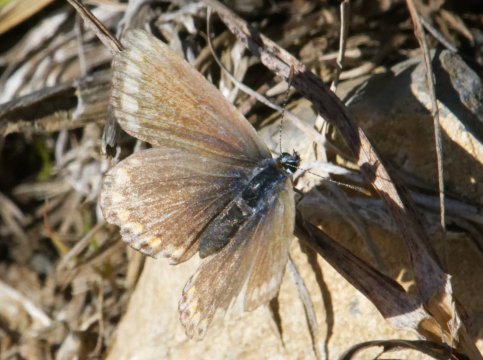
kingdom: Animalia
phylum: Arthropoda
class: Insecta
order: Lepidoptera
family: Lycaenidae
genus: Polyommatus
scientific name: Polyommatus icarus
